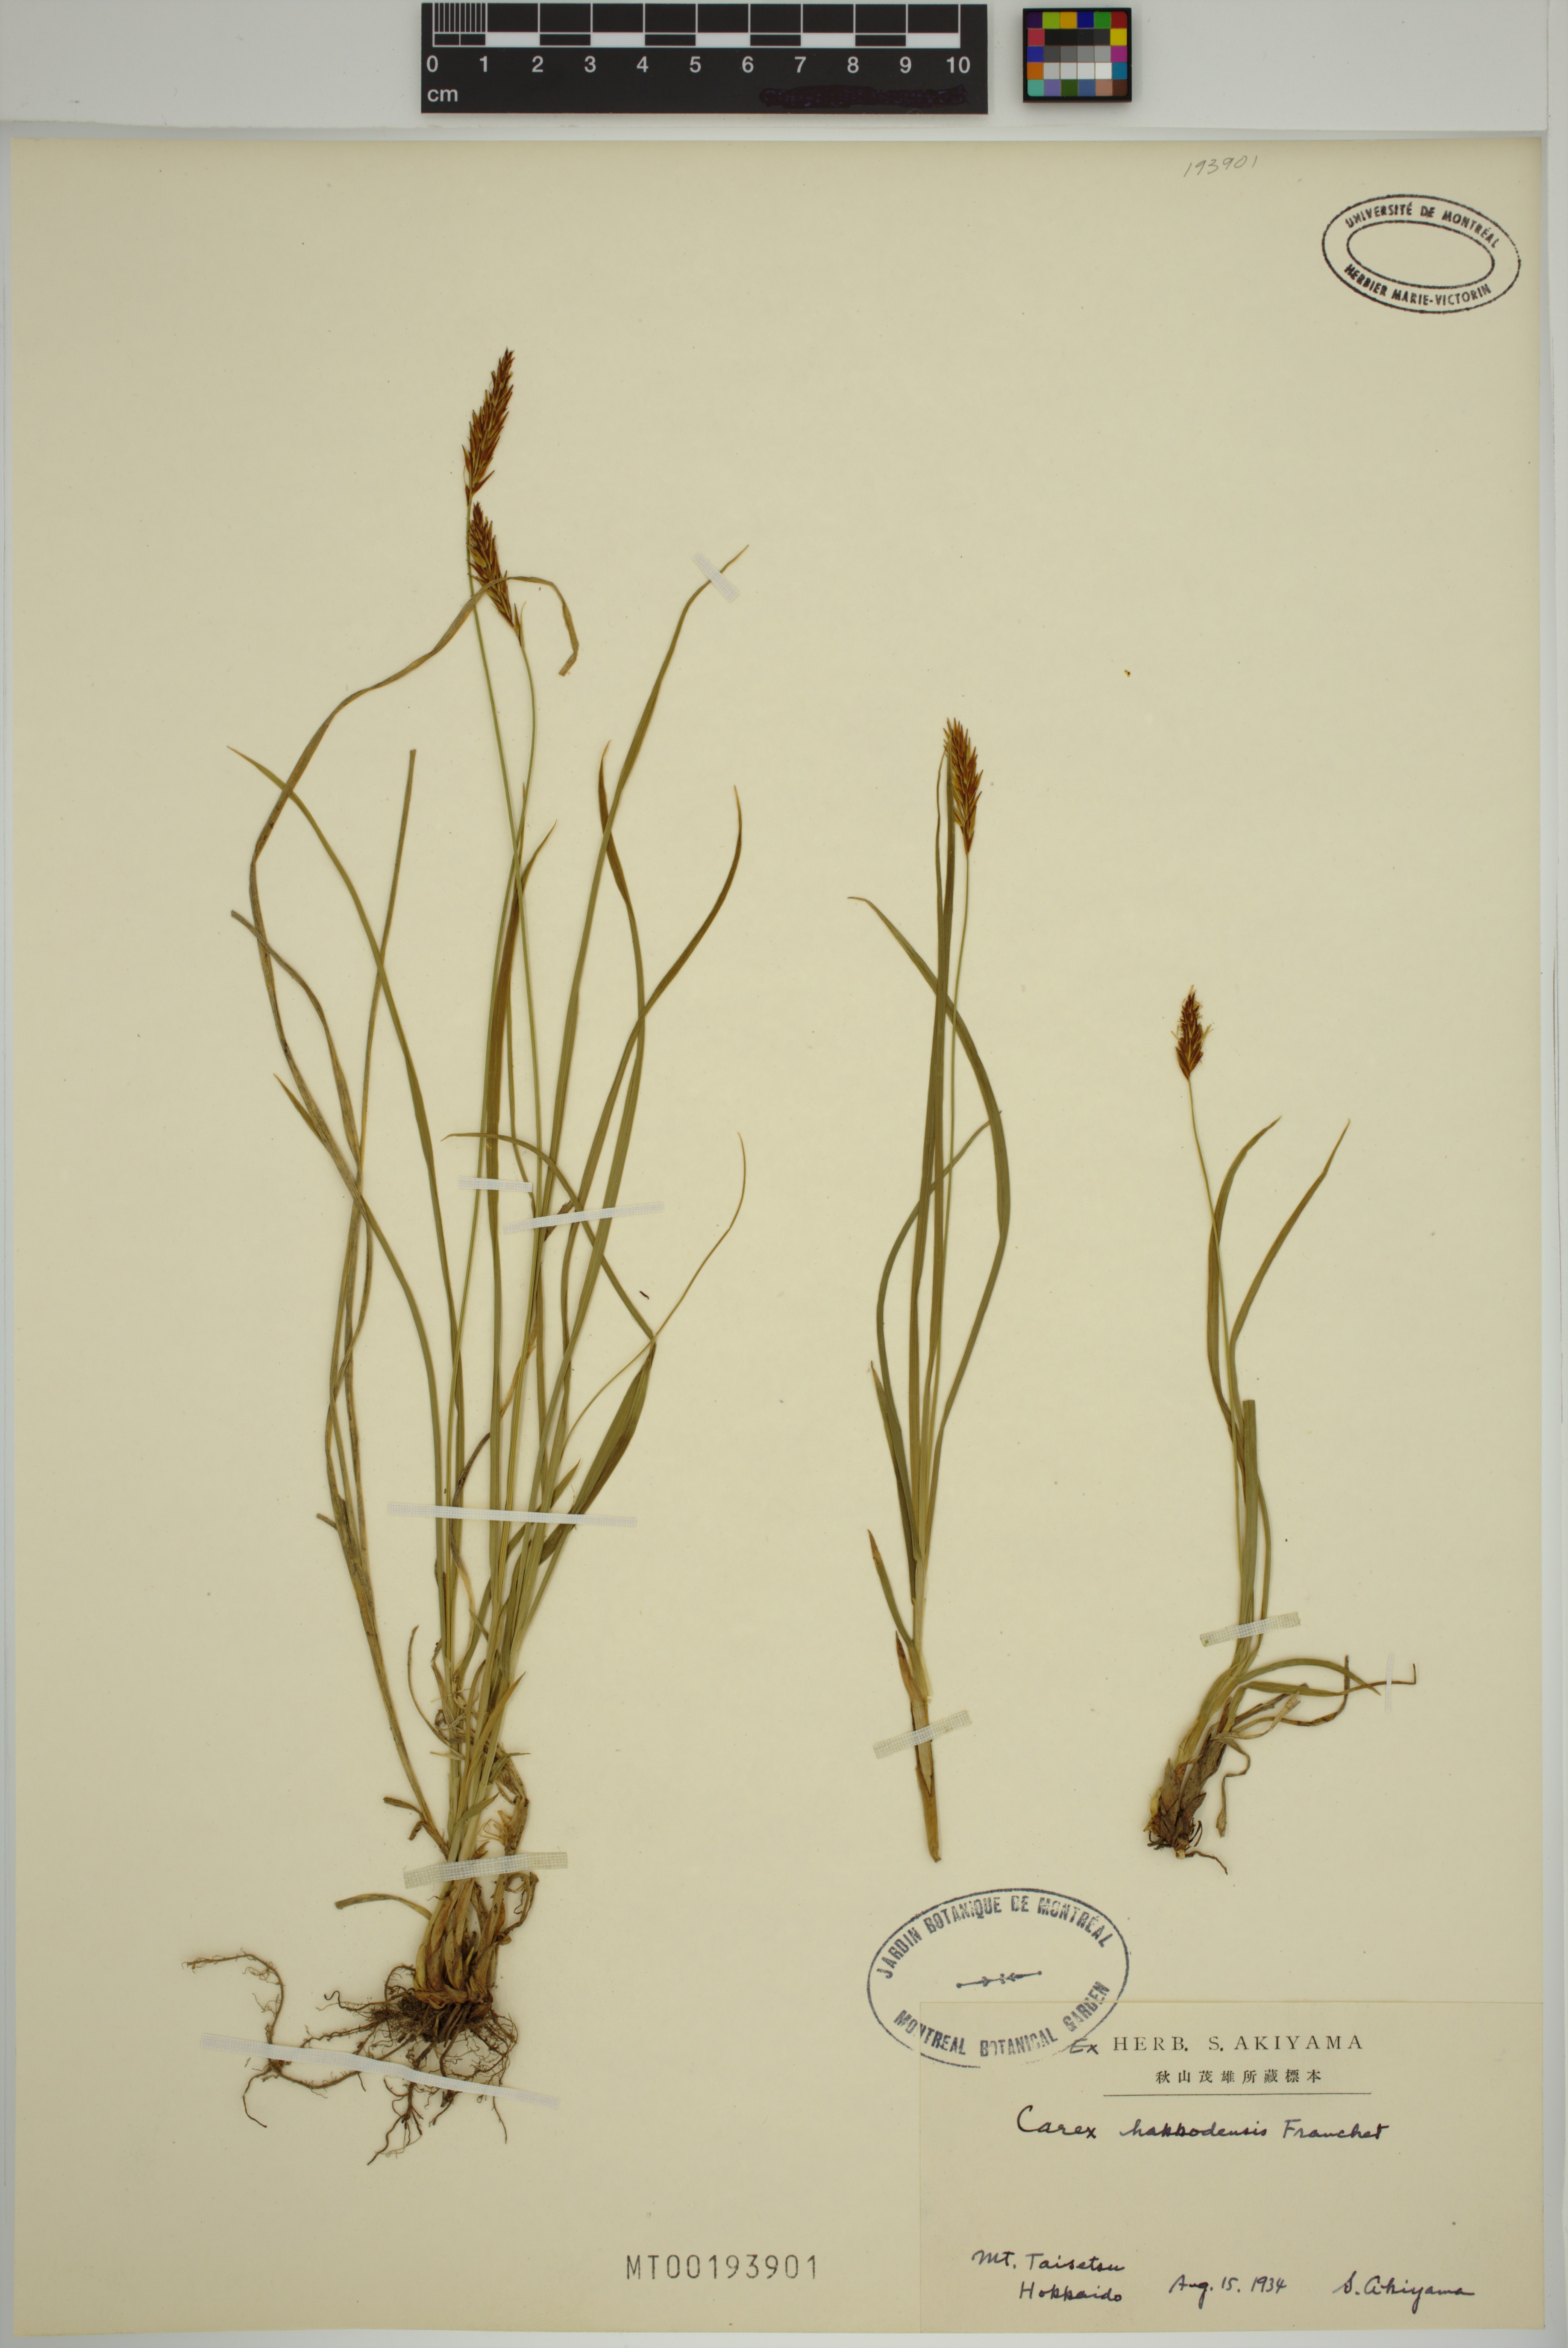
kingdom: Plantae
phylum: Tracheophyta
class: Liliopsida
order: Poales
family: Cyperaceae
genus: Carex
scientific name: Carex hakkodensis
